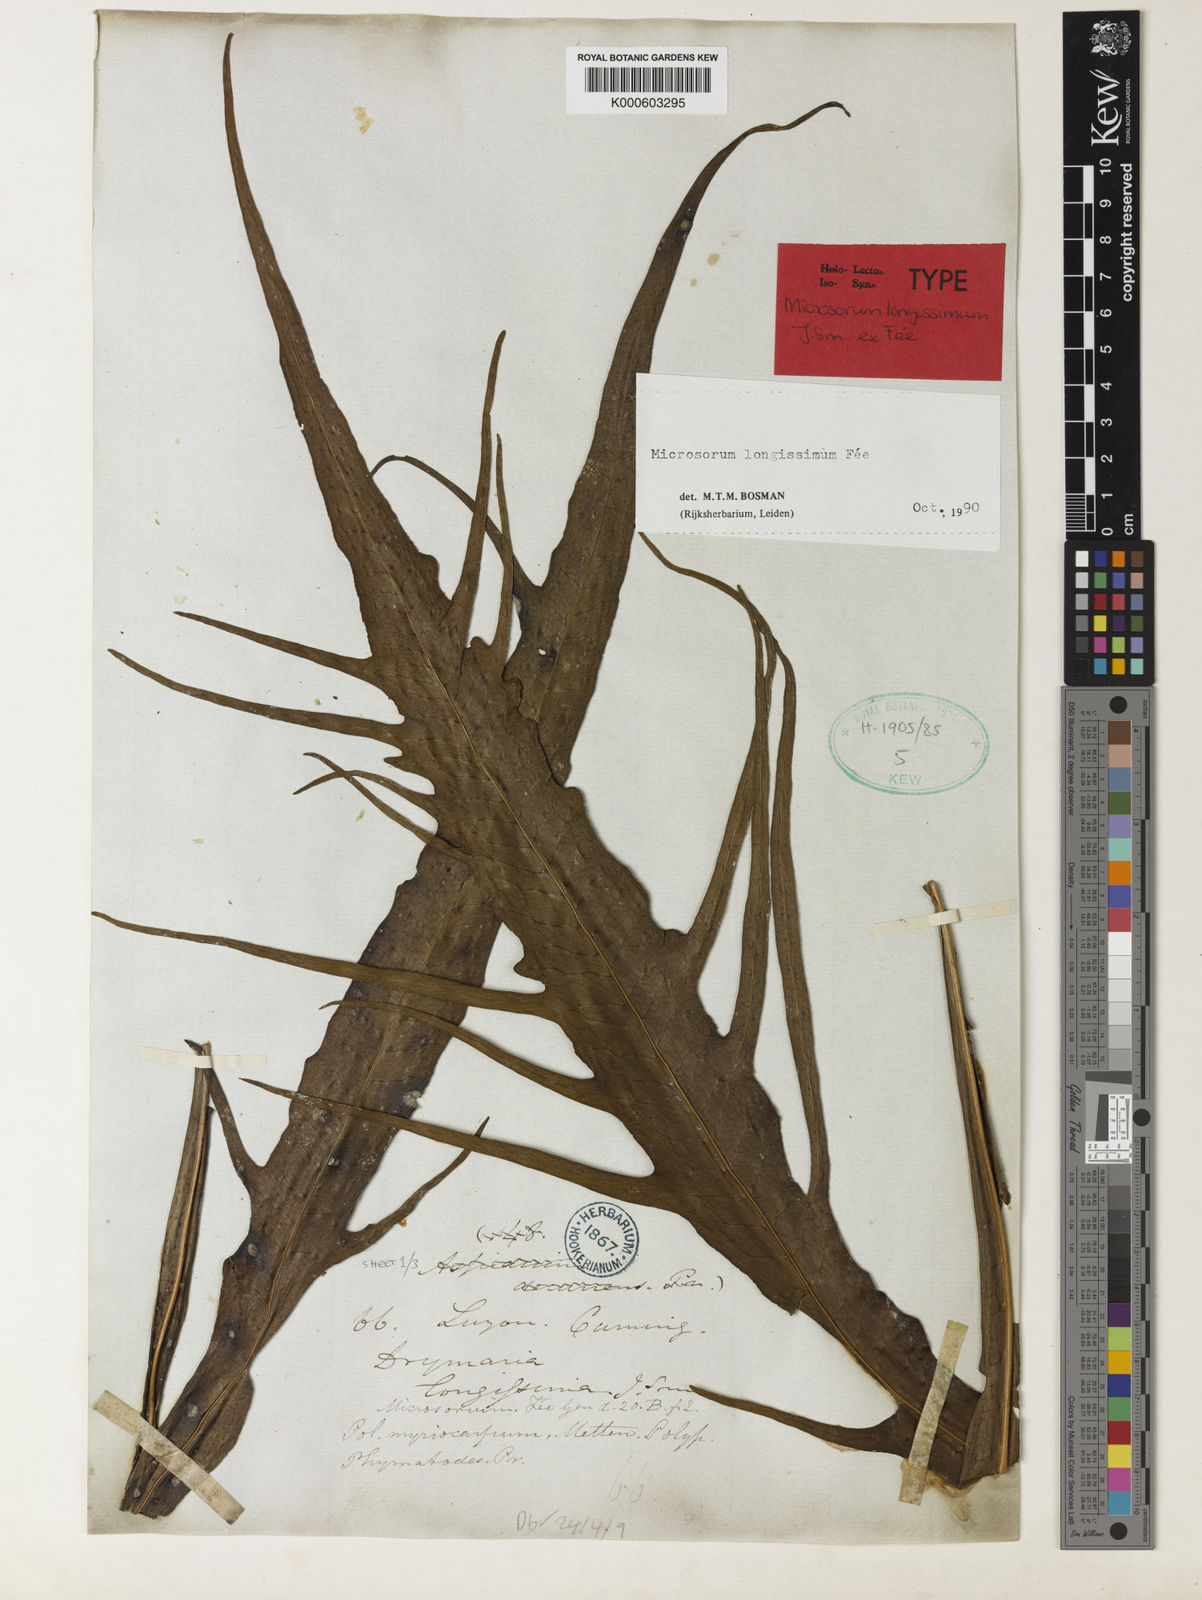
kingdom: Plantae
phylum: Tracheophyta
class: Polypodiopsida
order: Polypodiales
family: Polypodiaceae
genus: Microsorum
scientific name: Microsorum
